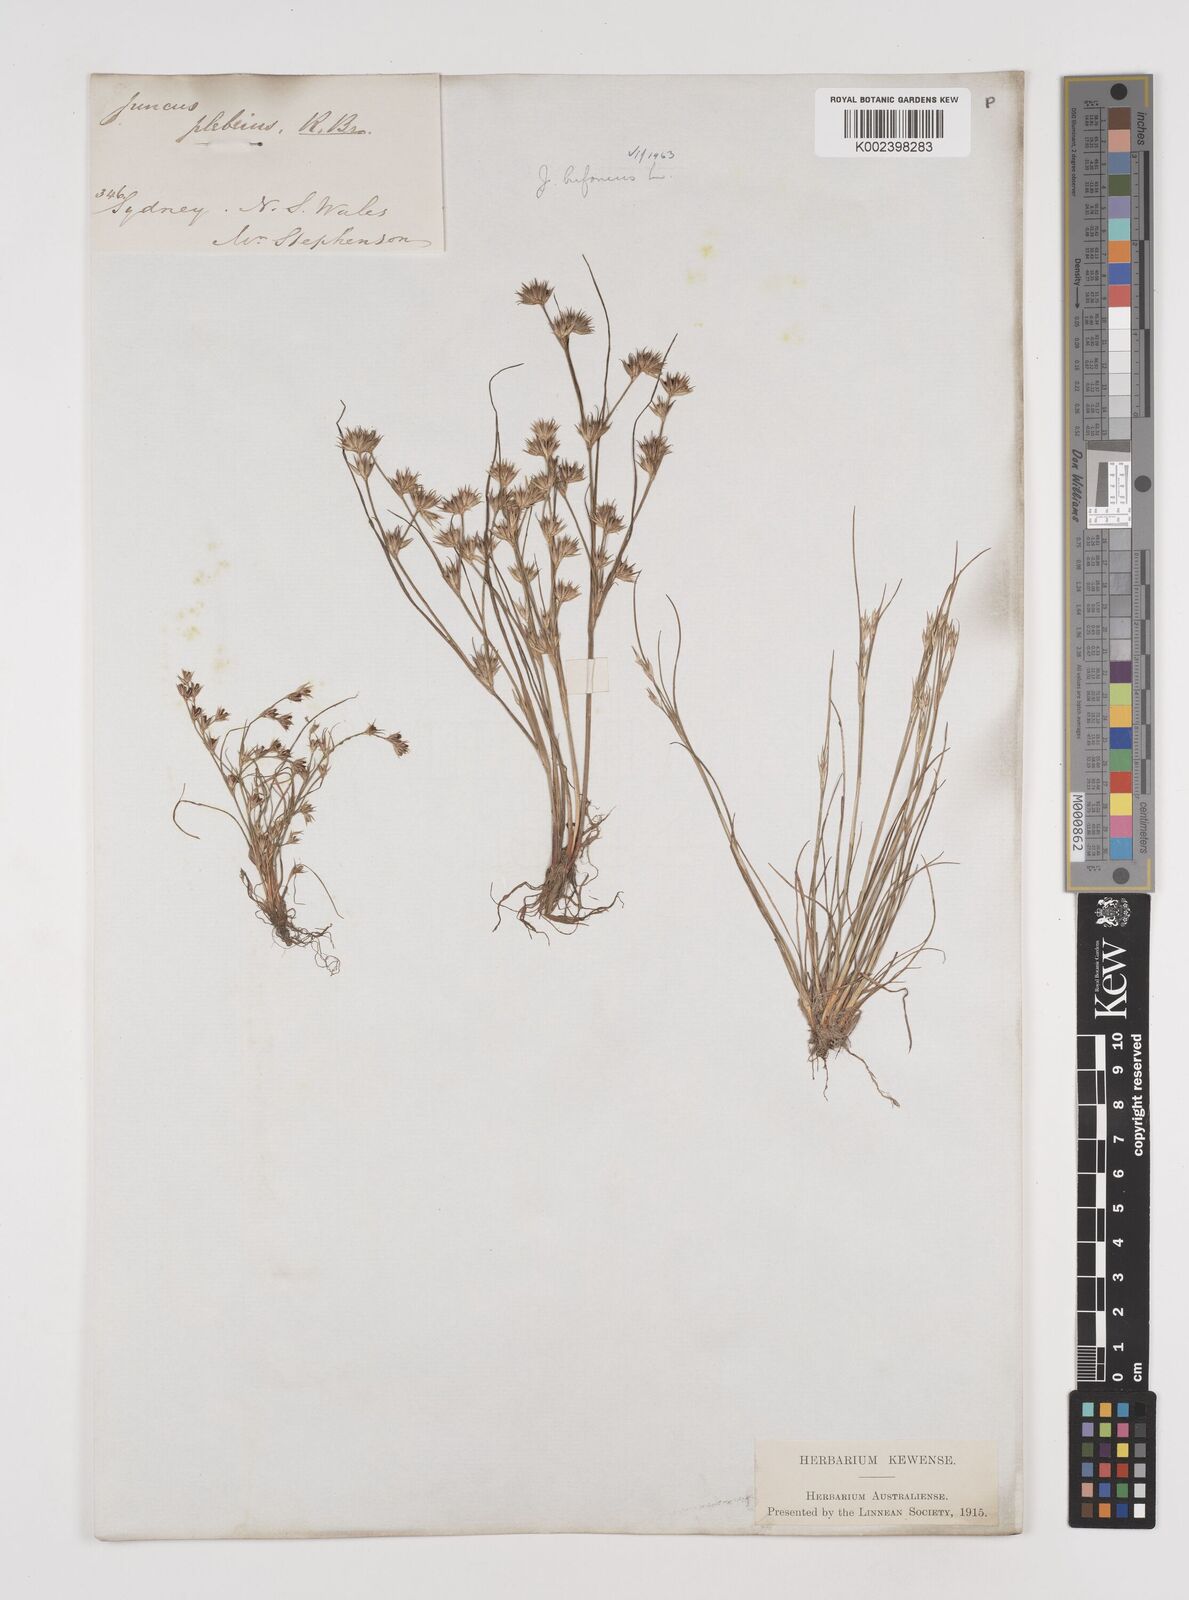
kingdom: Plantae
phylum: Tracheophyta
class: Liliopsida
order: Poales
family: Juncaceae
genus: Juncus
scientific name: Juncus ranarius
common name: Frog rush
